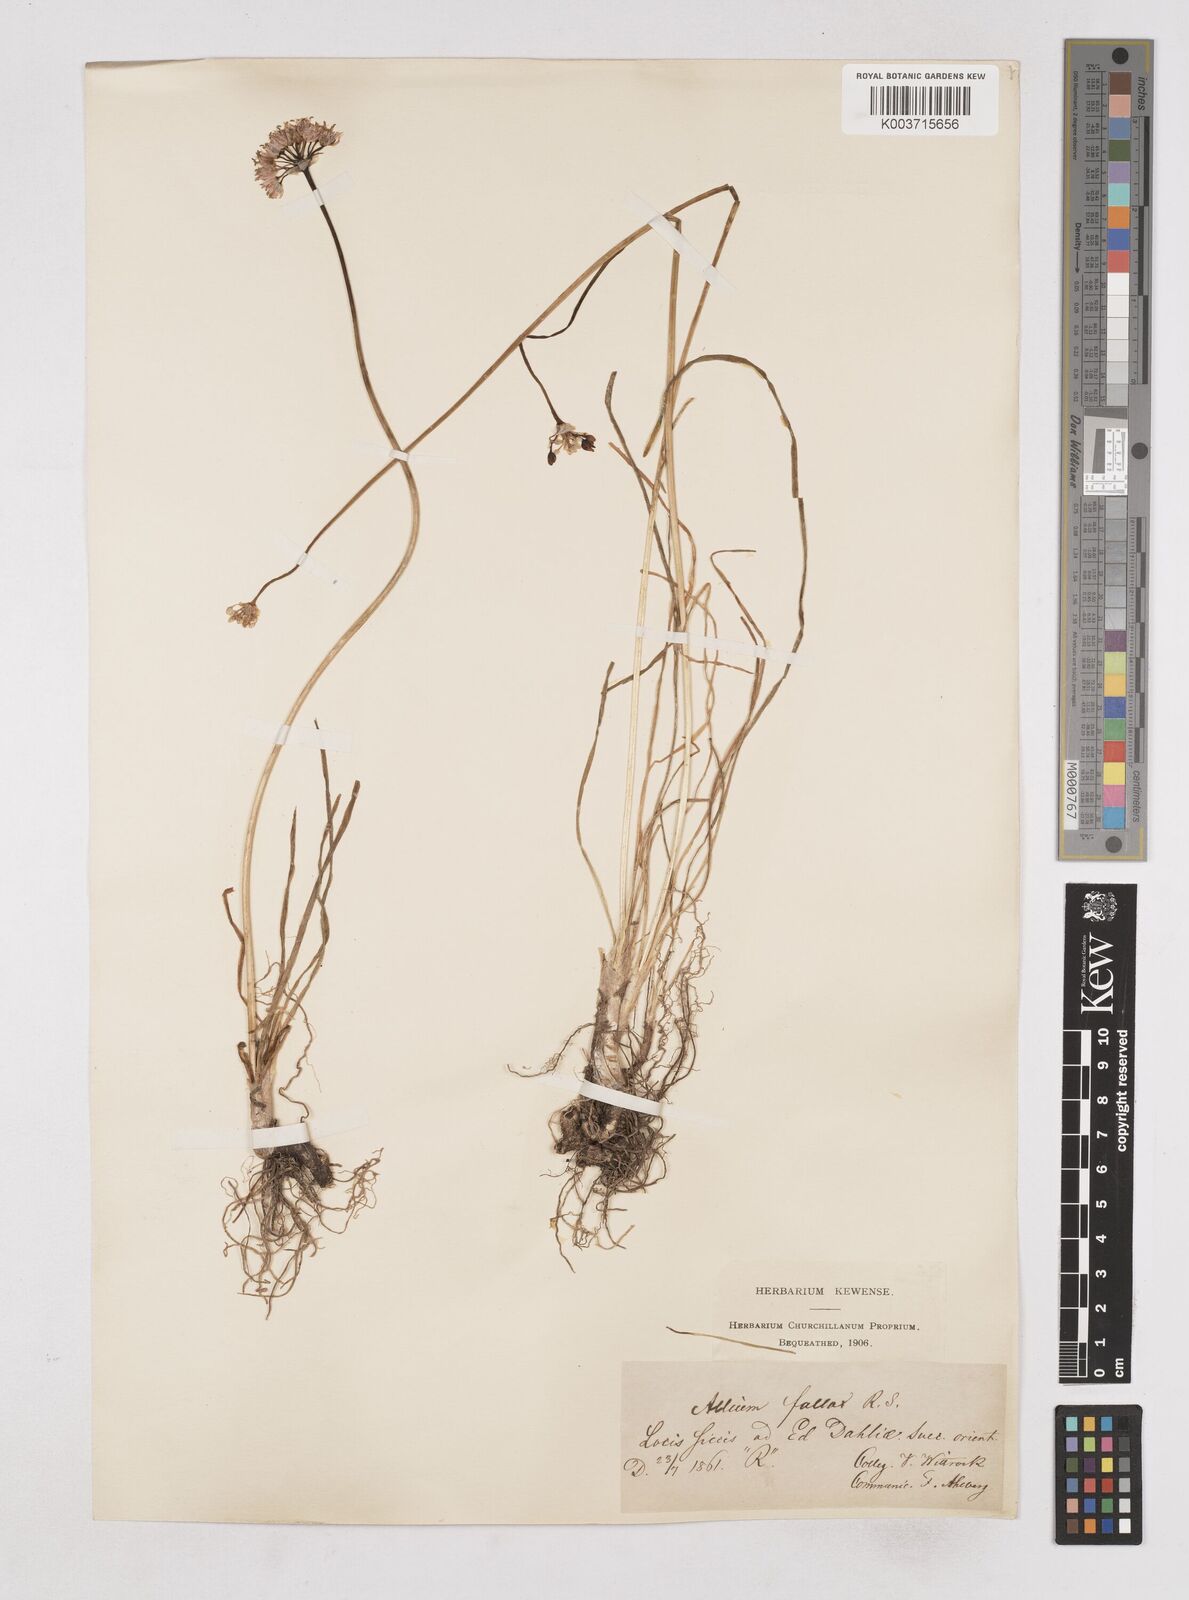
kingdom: Plantae
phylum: Tracheophyta
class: Liliopsida
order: Asparagales
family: Amaryllidaceae
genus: Allium
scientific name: Allium
